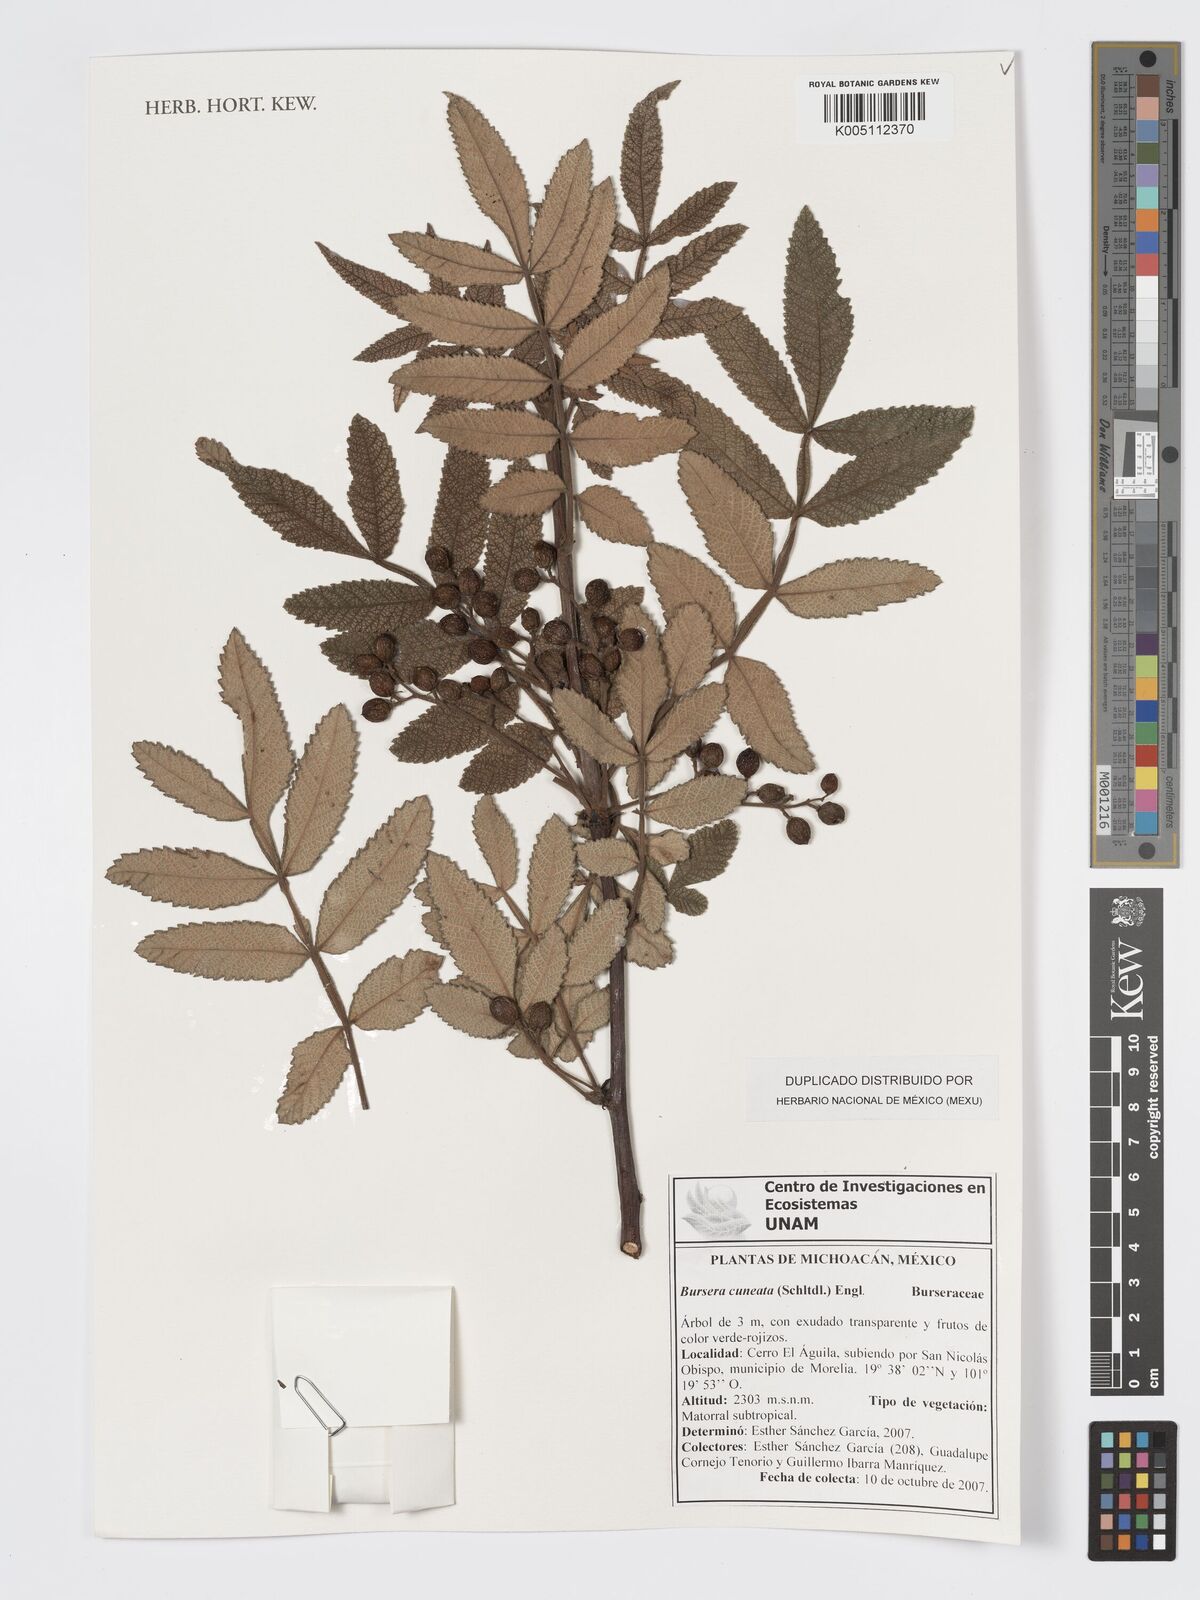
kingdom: Plantae
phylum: Tracheophyta
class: Magnoliopsida
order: Sapindales
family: Burseraceae
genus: Bursera
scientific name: Bursera cuneata
